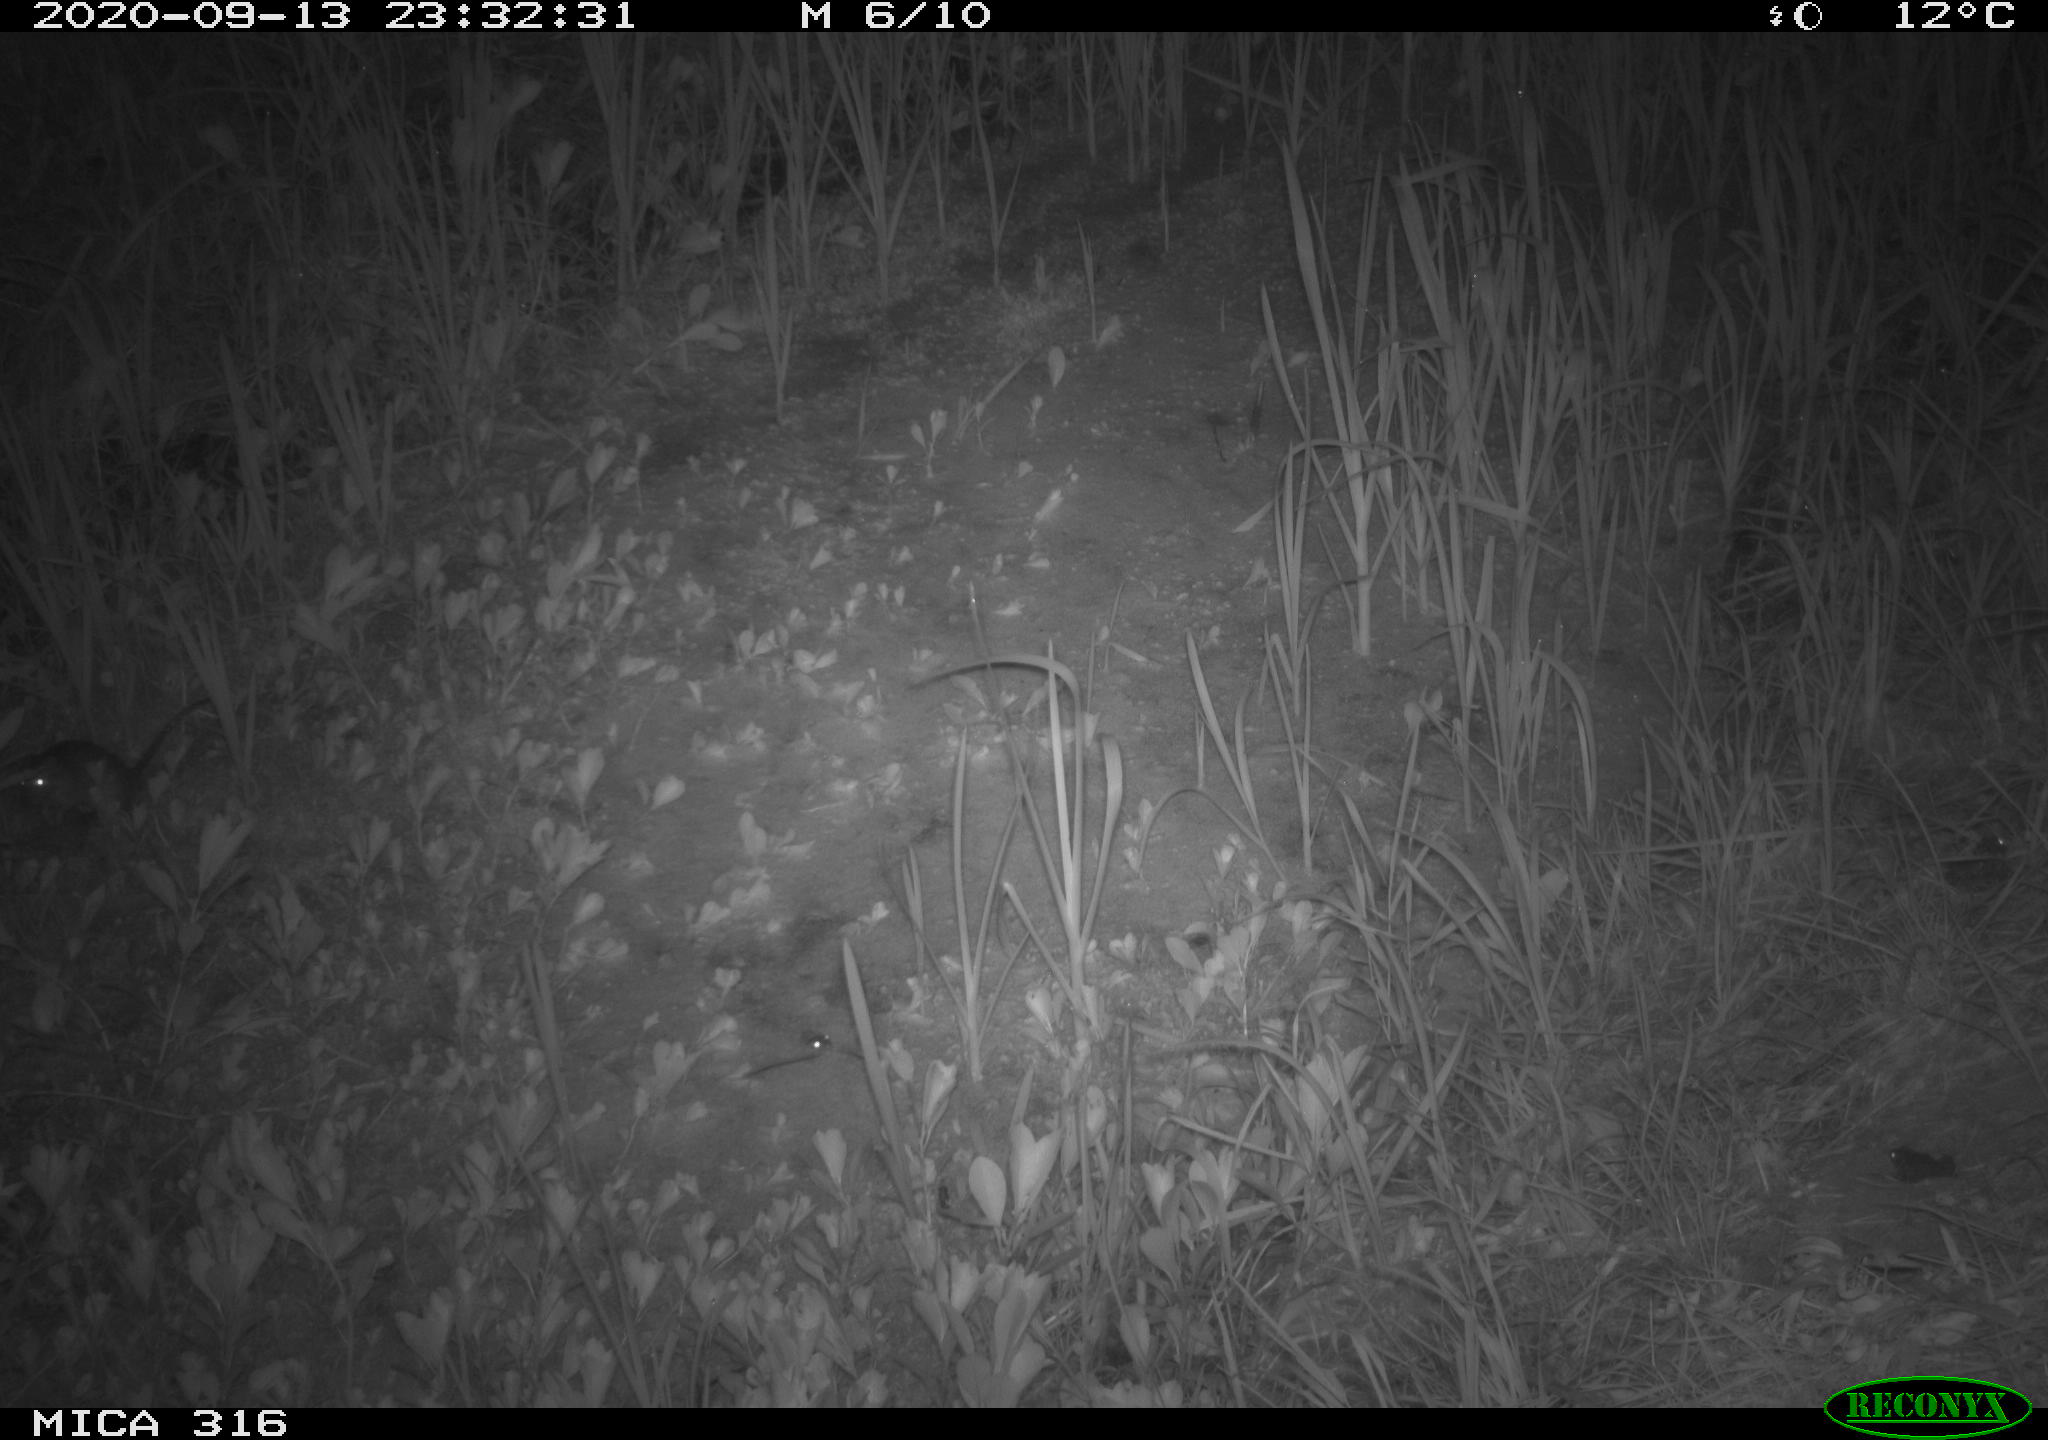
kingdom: Animalia
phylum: Chordata
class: Mammalia
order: Rodentia
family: Muridae
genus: Rattus
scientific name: Rattus norvegicus
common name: Brown rat
